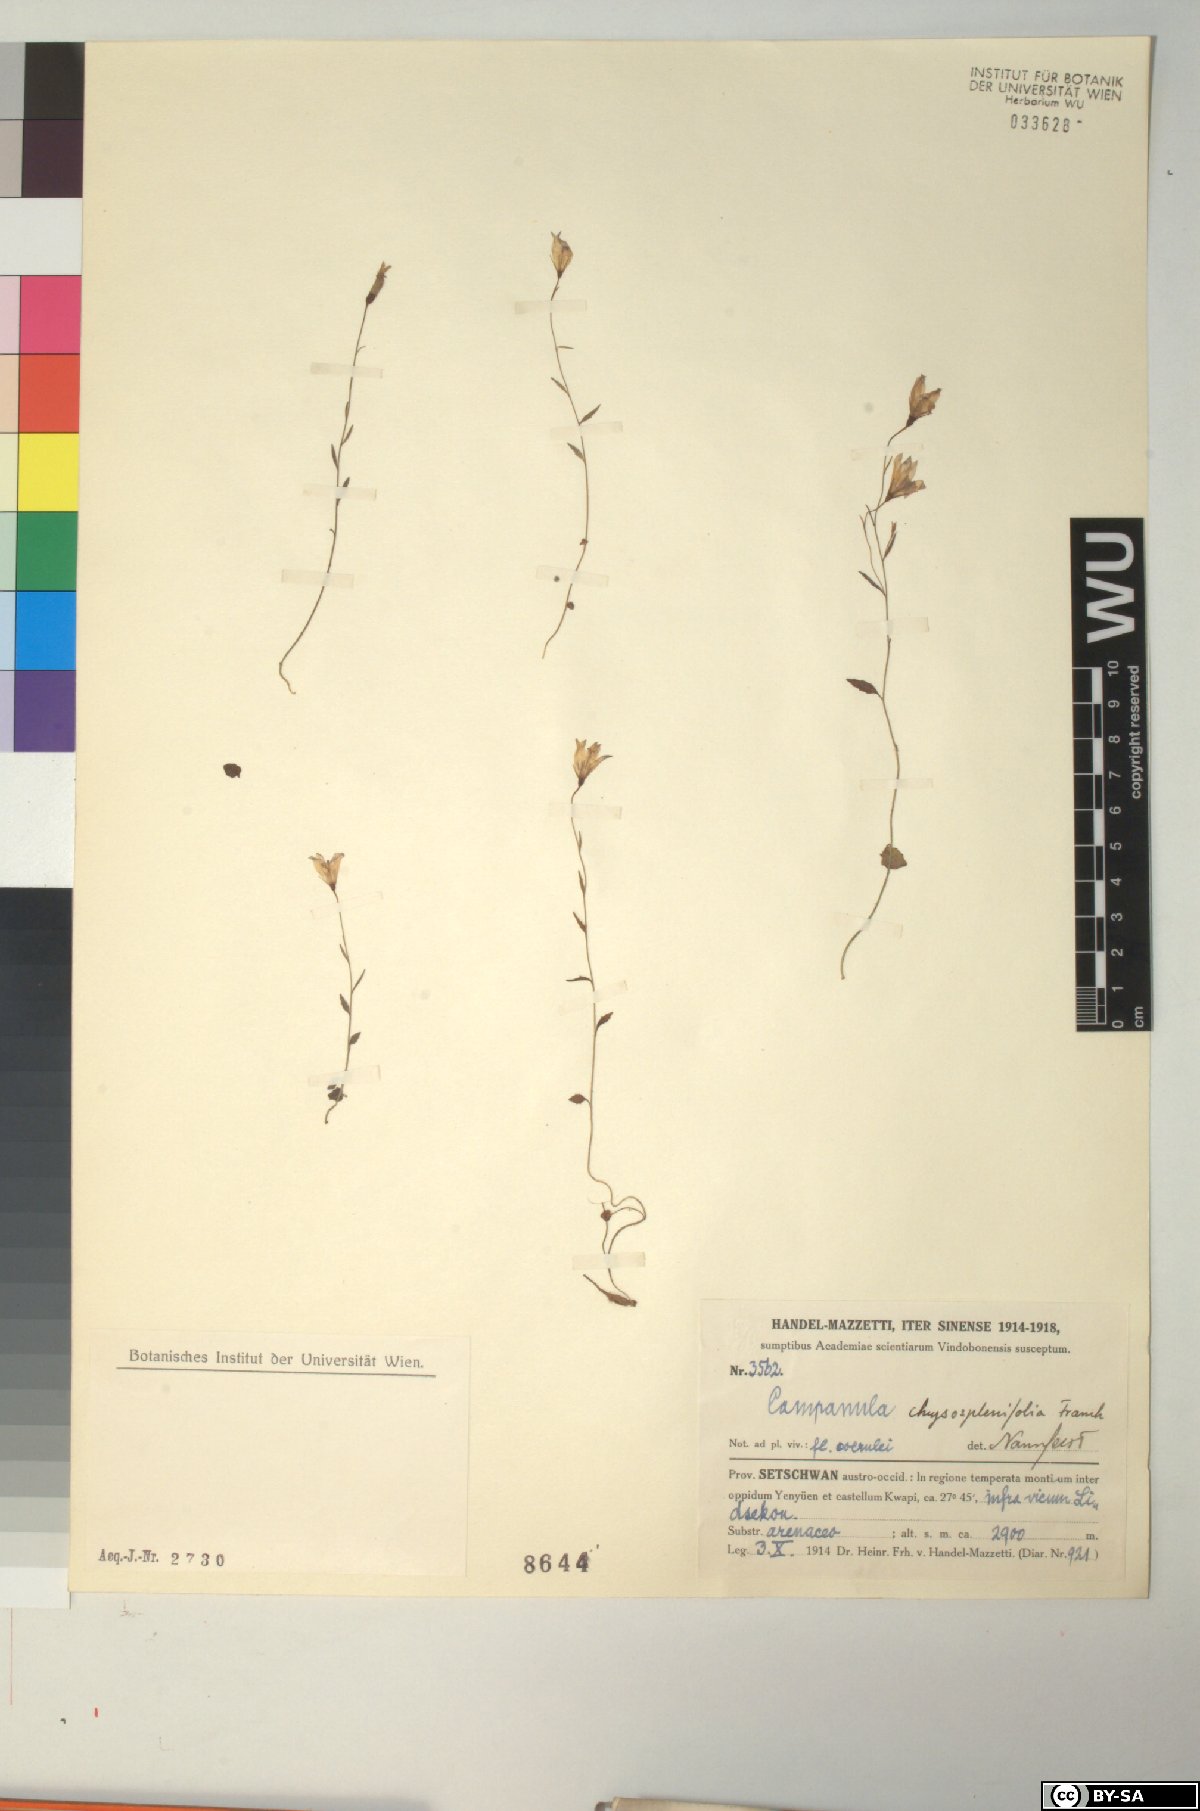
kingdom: Plantae
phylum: Tracheophyta
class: Magnoliopsida
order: Asterales
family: Campanulaceae
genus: Campanula
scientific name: Campanula chrysosplenifolia
